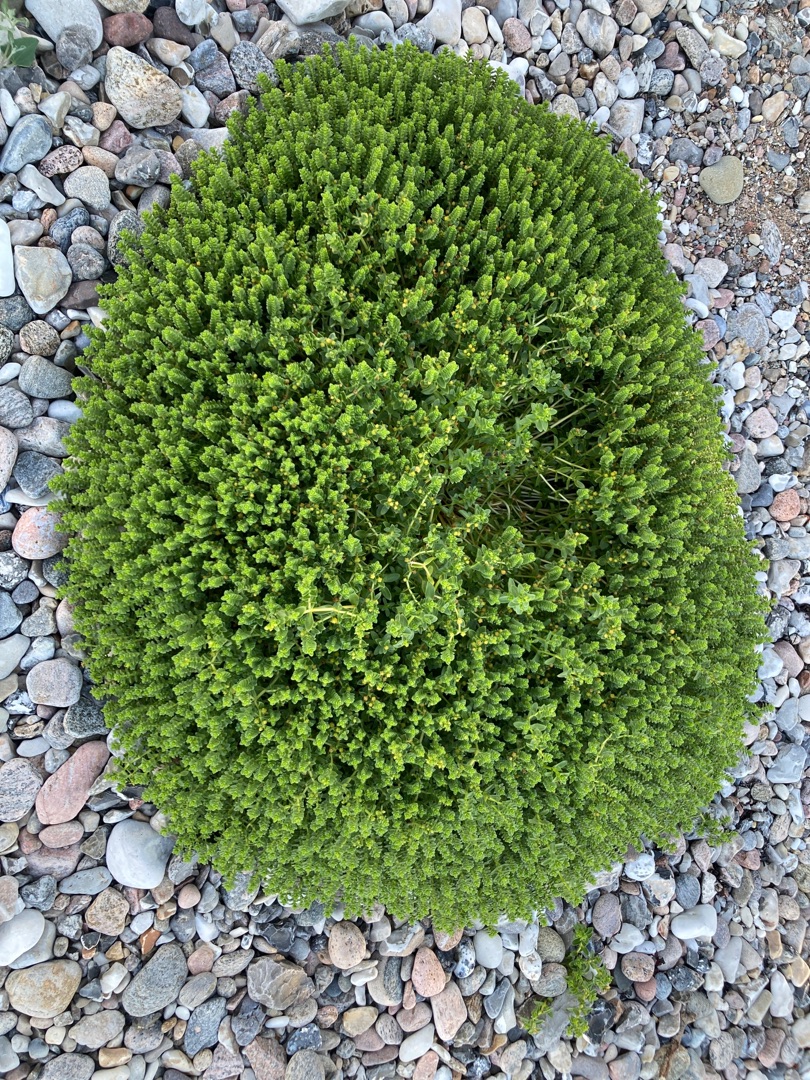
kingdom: Plantae
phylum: Tracheophyta
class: Magnoliopsida
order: Caryophyllales
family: Caryophyllaceae
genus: Honckenya
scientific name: Honckenya peploides
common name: Strandarve
